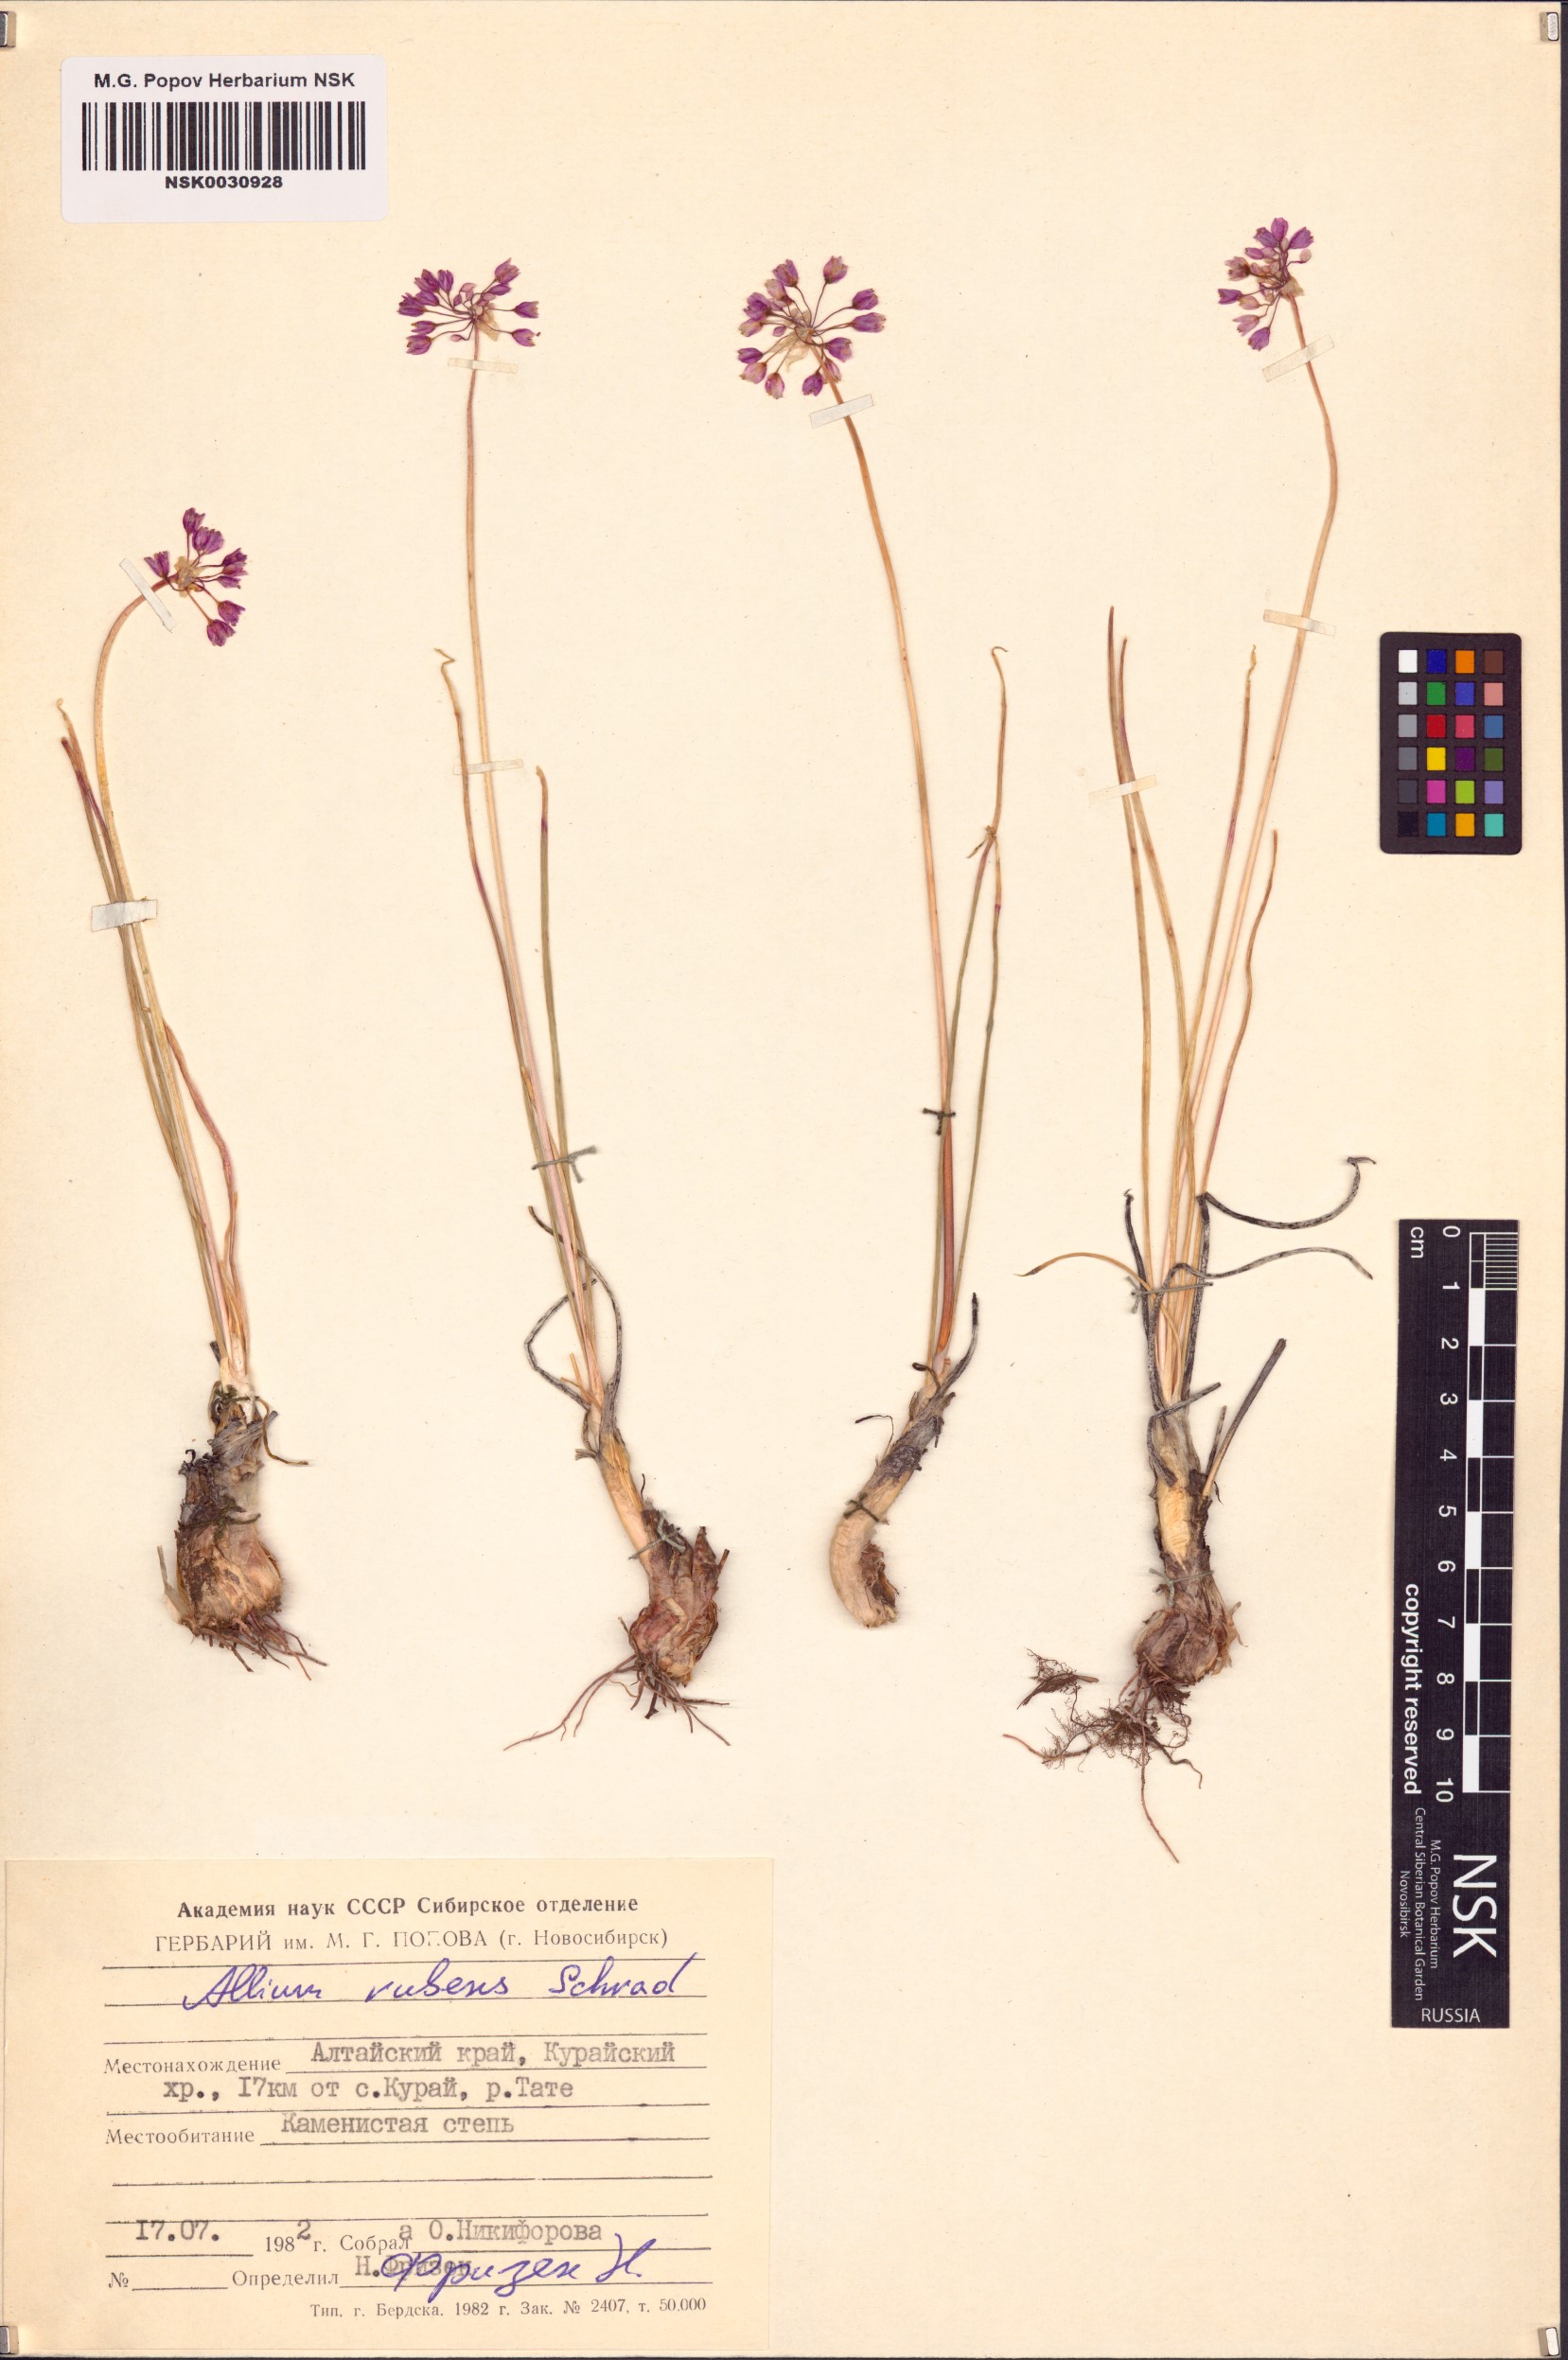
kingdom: Plantae
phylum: Tracheophyta
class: Liliopsida
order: Asparagales
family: Amaryllidaceae
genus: Allium
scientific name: Allium rubens
